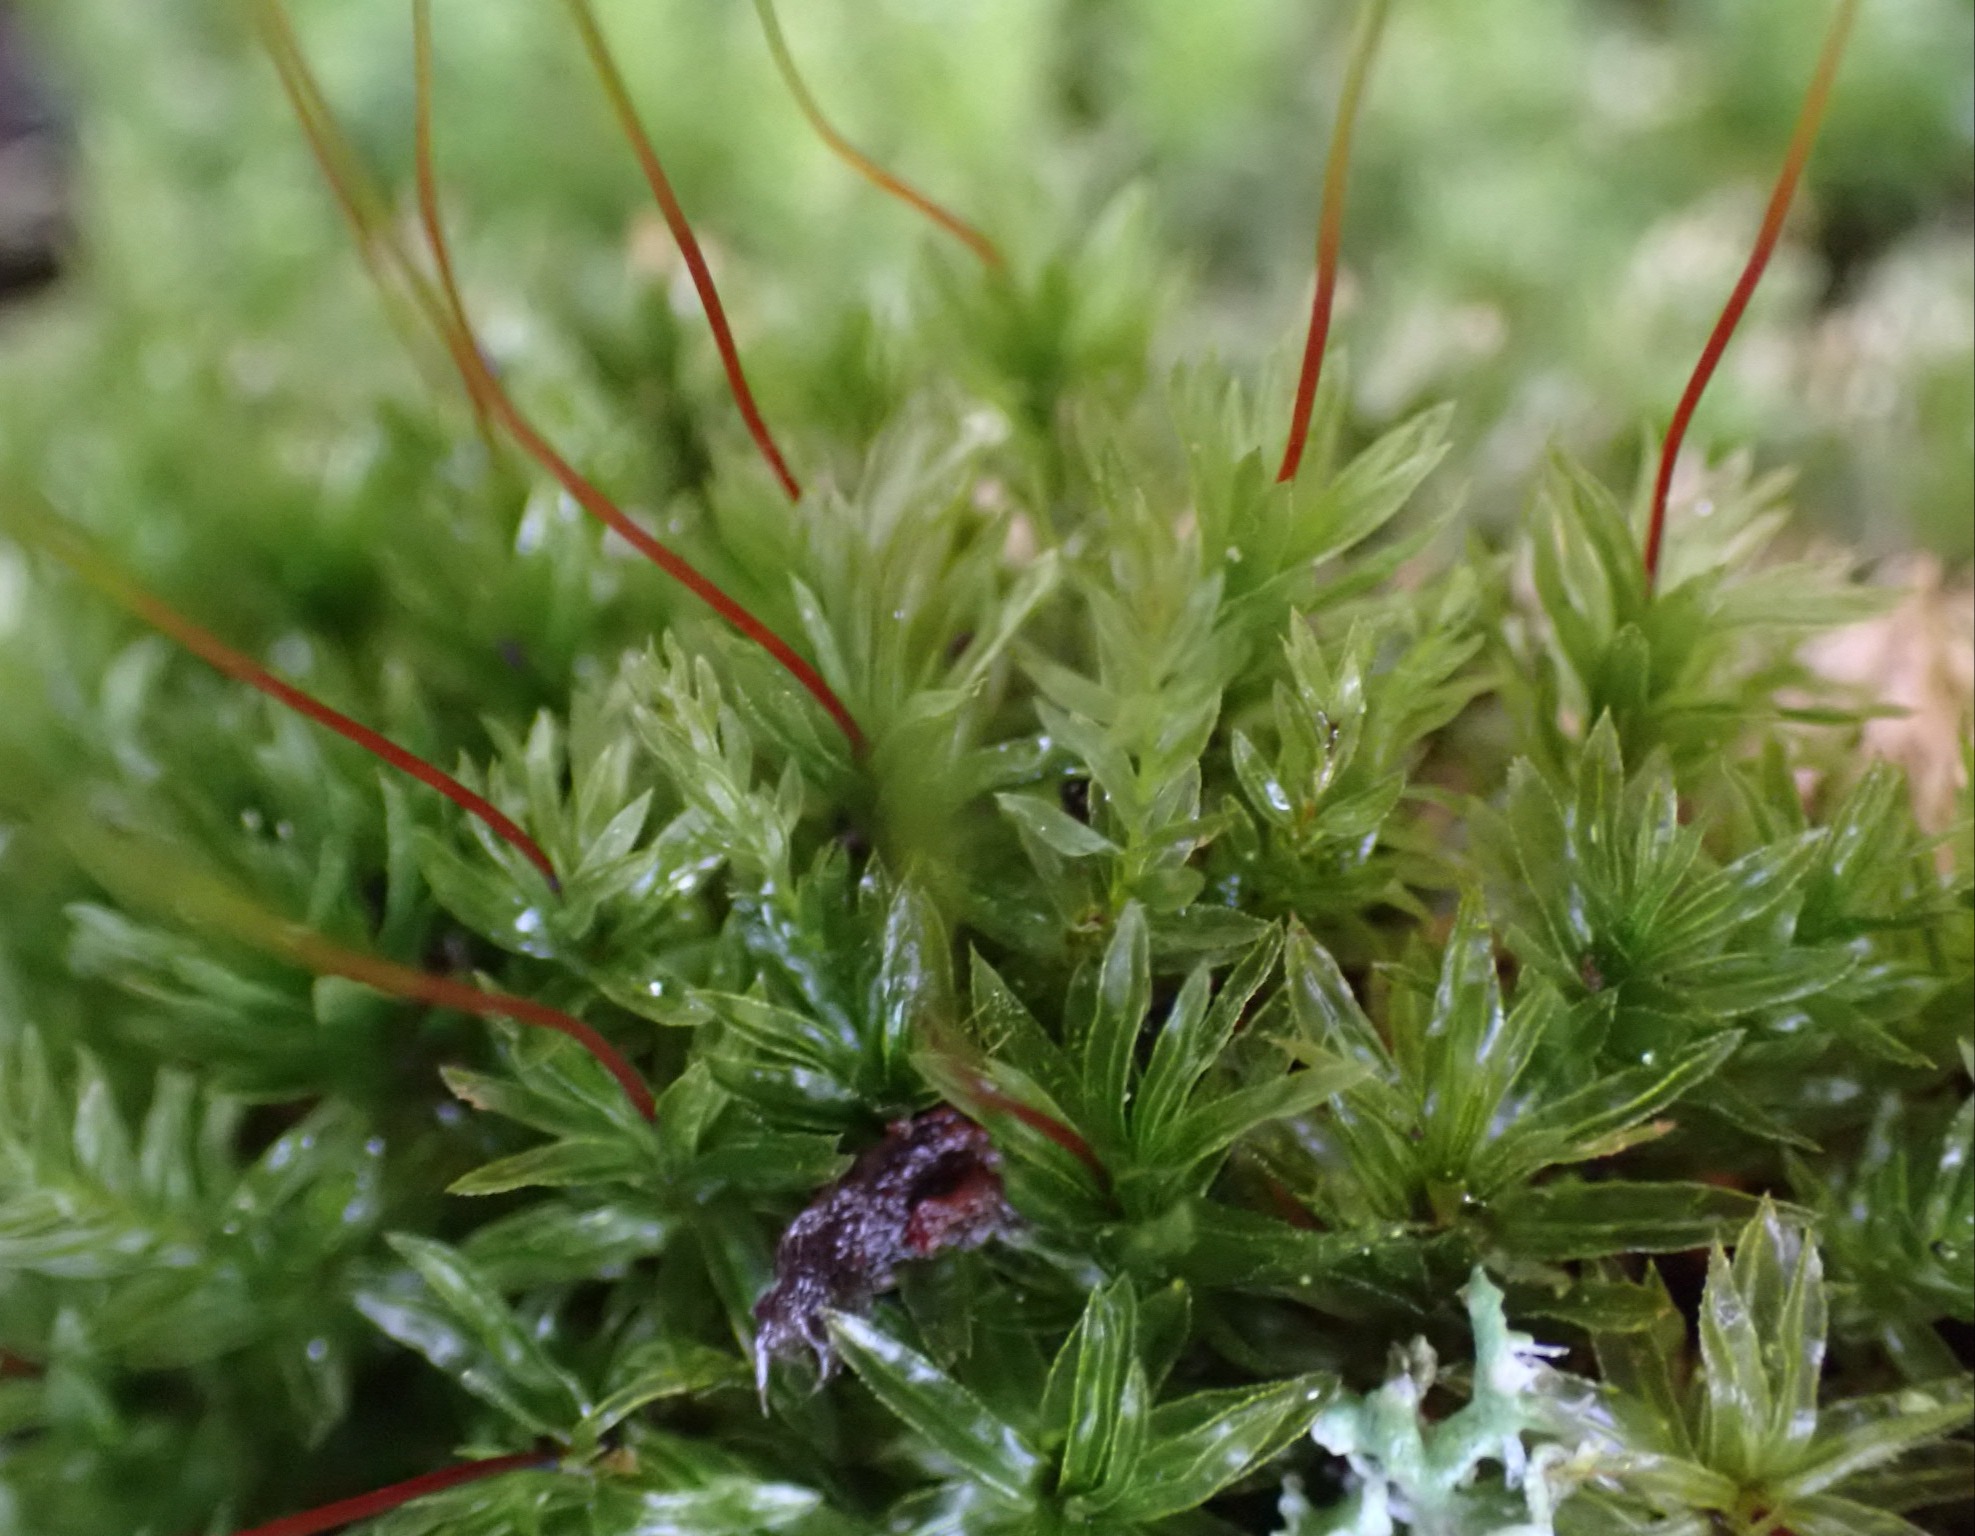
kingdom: Plantae
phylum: Bryophyta
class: Bryopsida
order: Bryales
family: Mniaceae
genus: Mnium
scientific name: Mnium hornum
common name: Brunfiltet stjernemos
